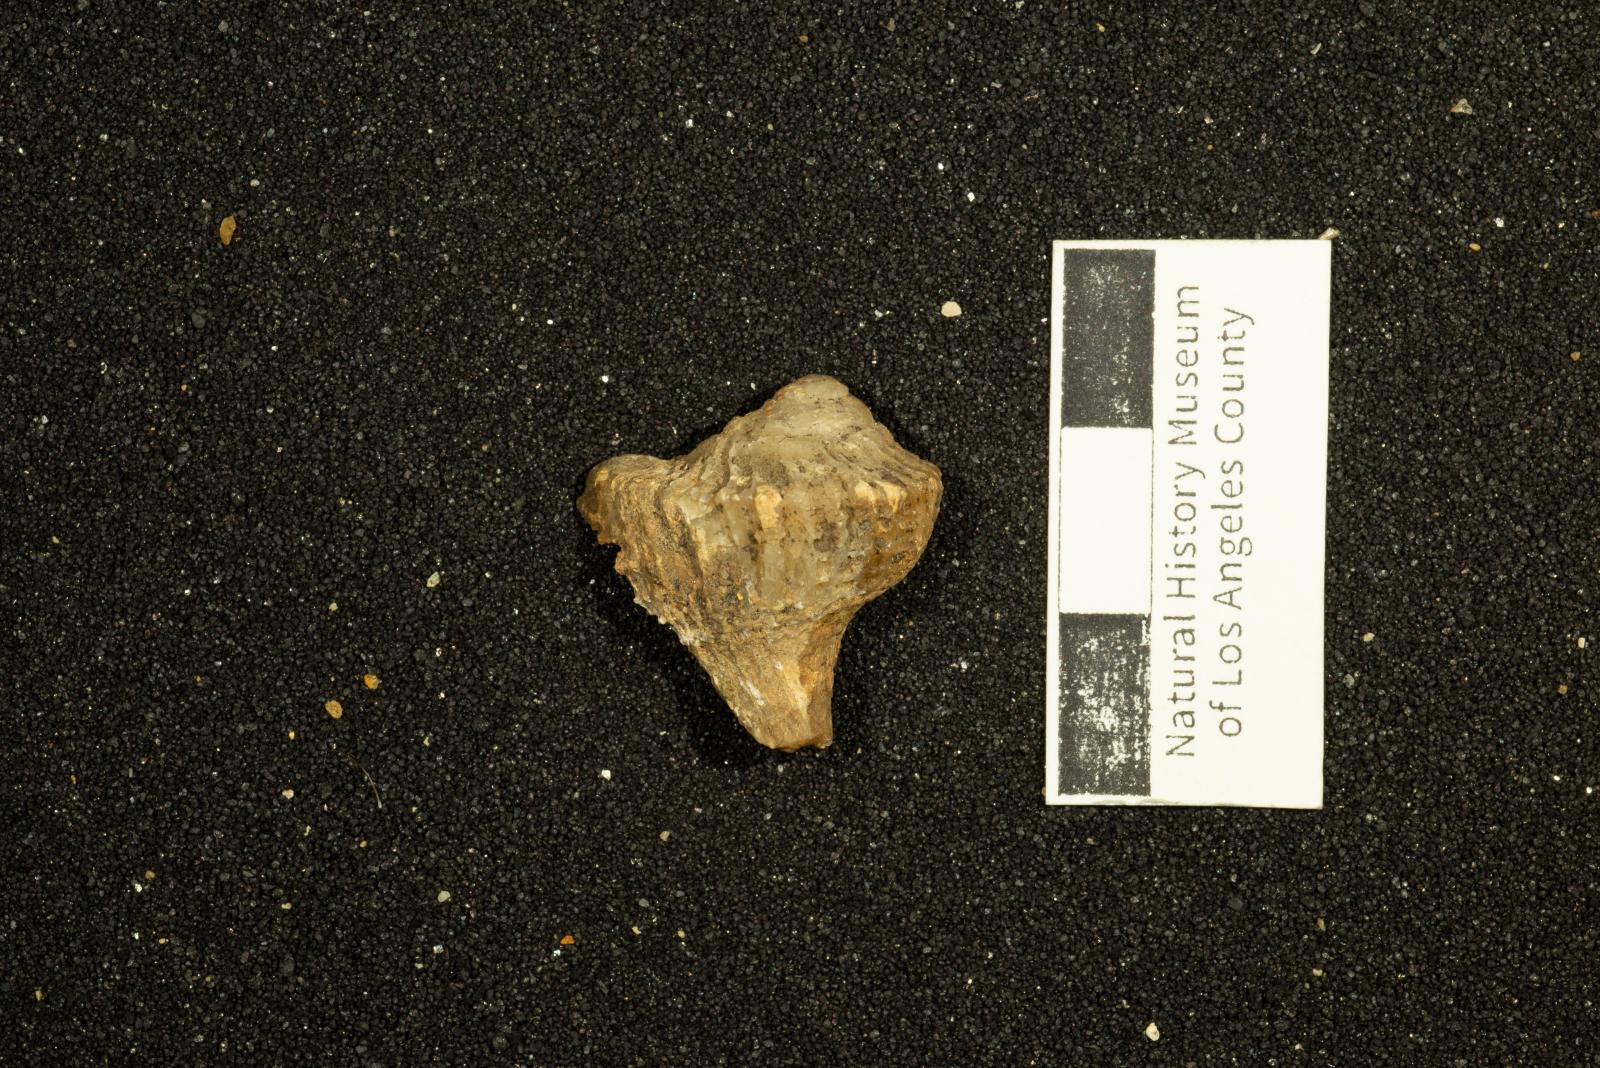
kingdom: Animalia
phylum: Mollusca
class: Gastropoda
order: Neogastropoda
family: Sarganidae
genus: Praesargana
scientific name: Praesargana Trophon condoni
